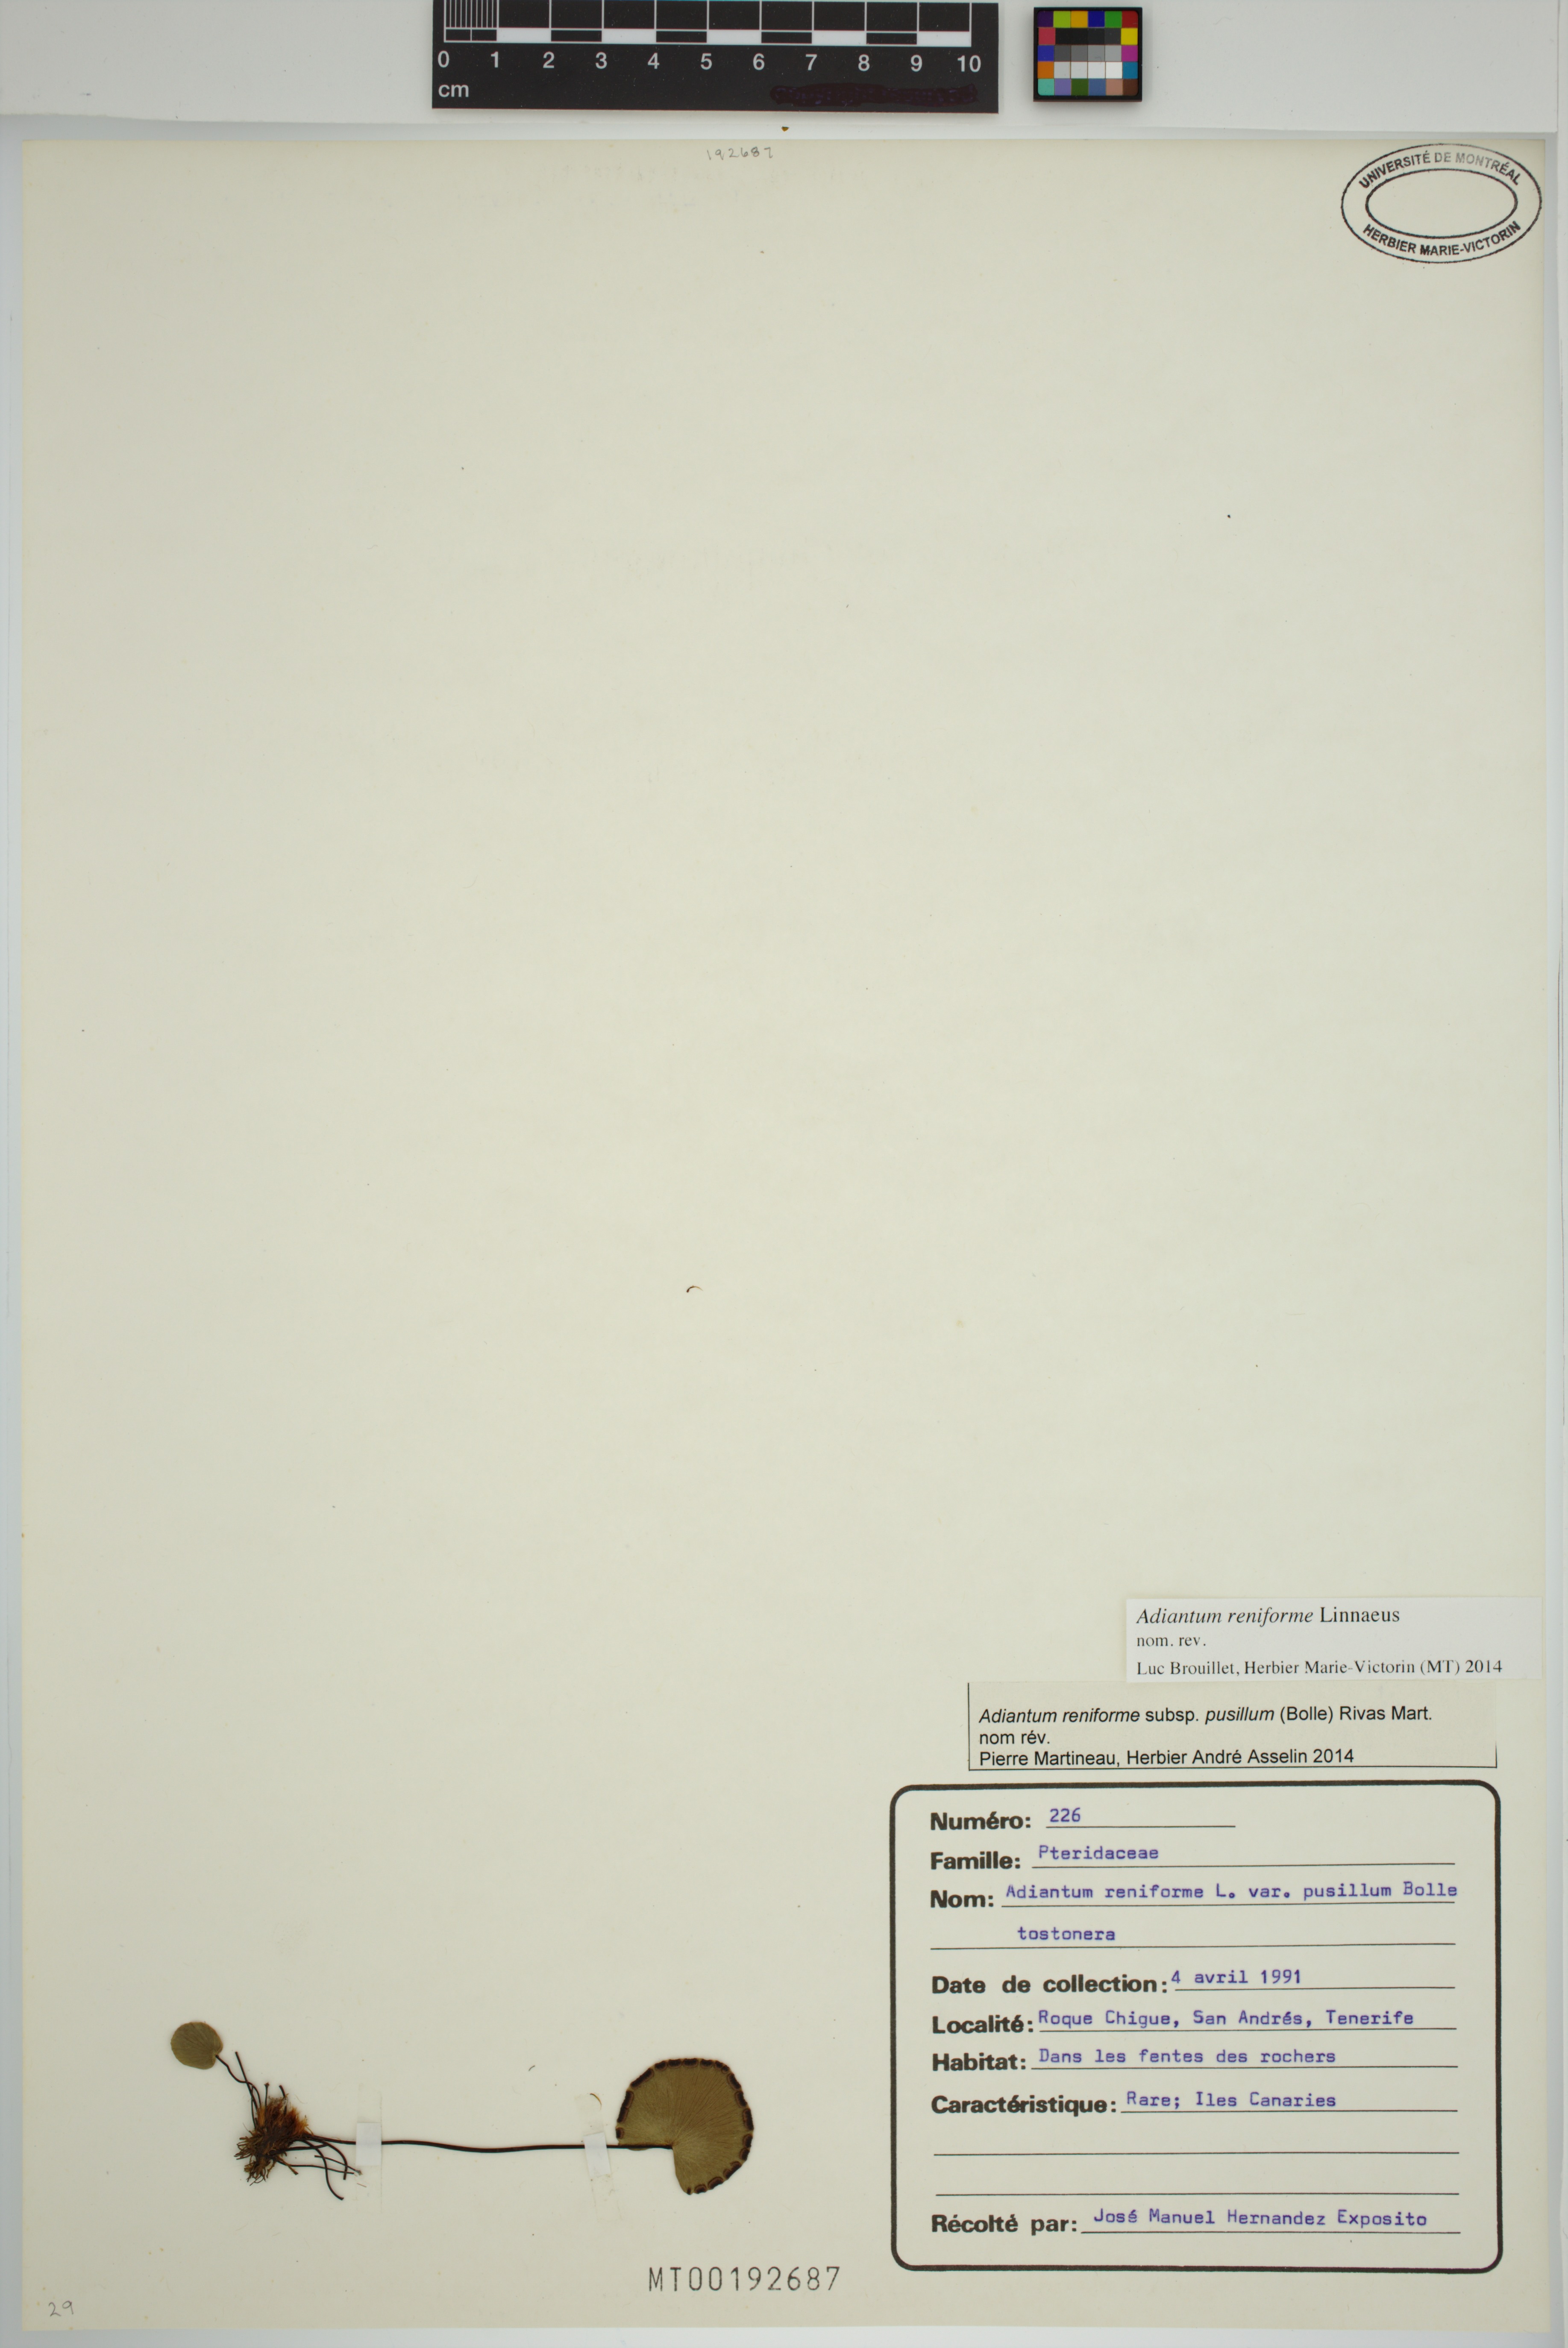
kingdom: Plantae
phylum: Tracheophyta
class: Polypodiopsida
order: Polypodiales
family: Pteridaceae
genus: Adiantum
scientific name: Adiantum reniforme
